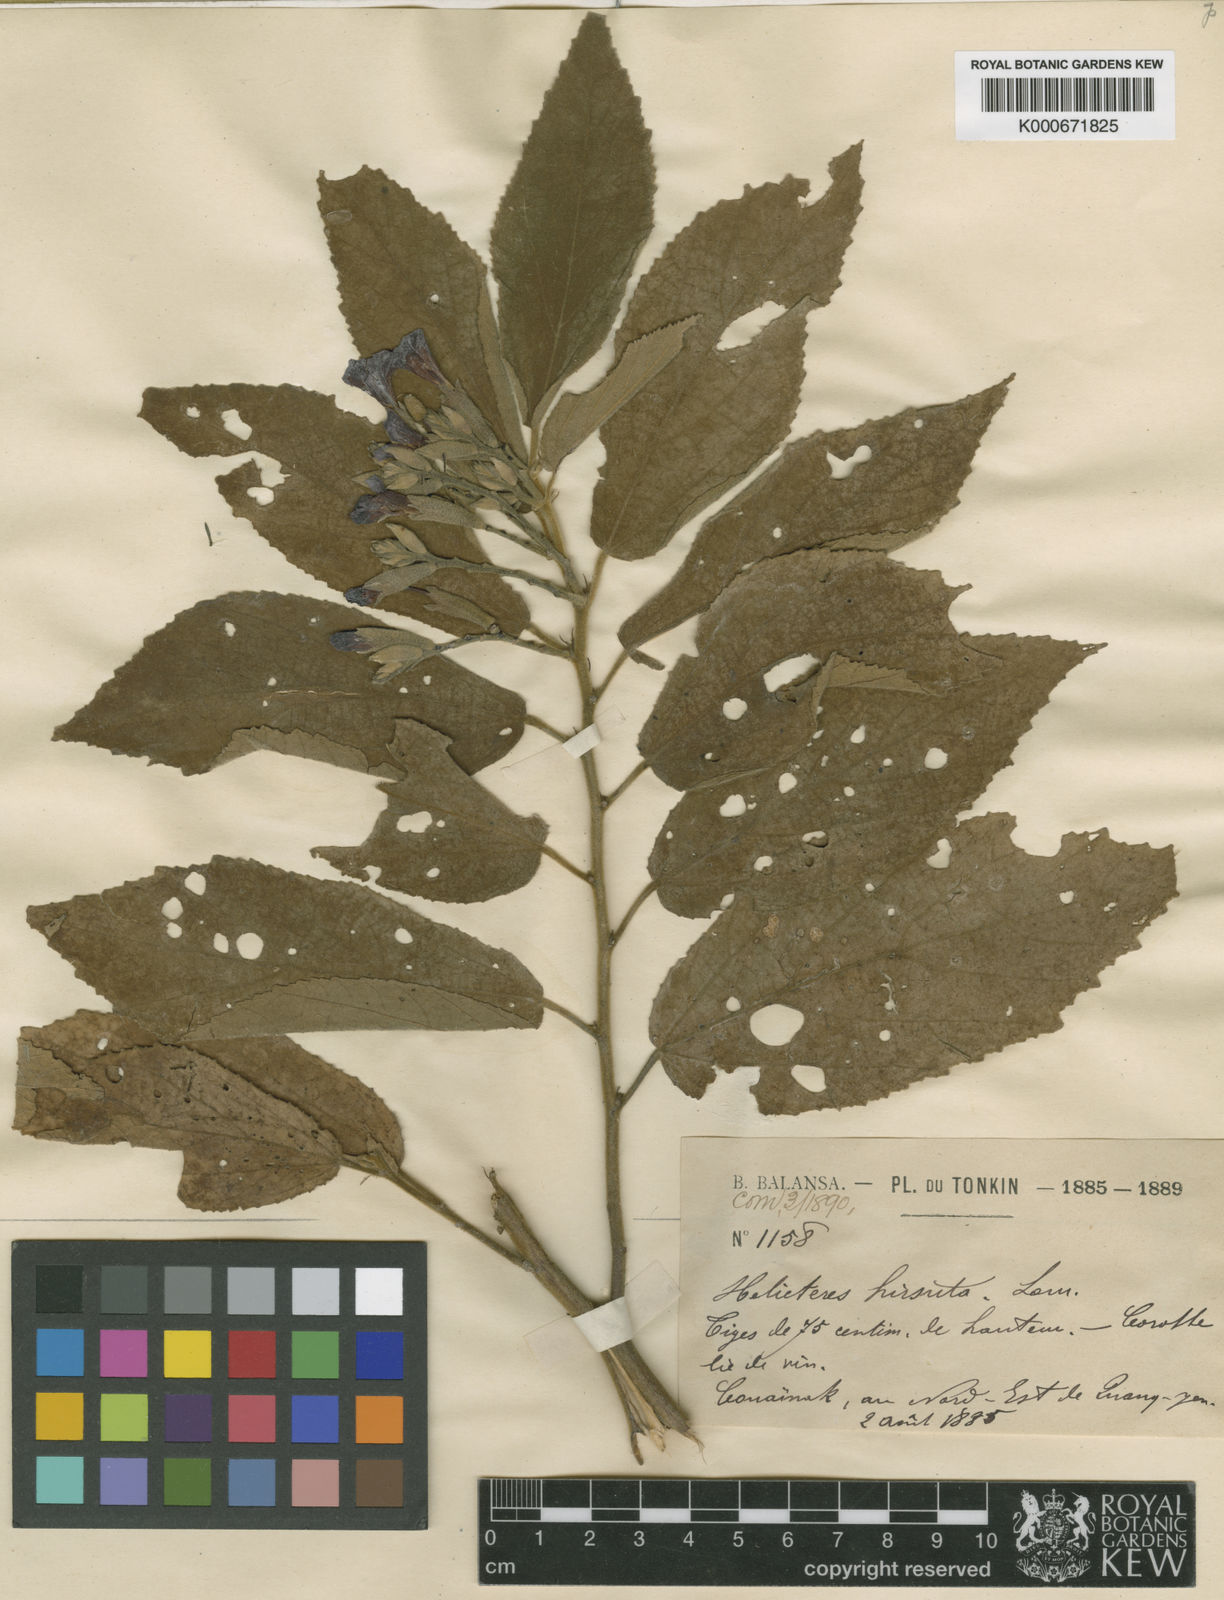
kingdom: Plantae
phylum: Tracheophyta
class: Magnoliopsida
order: Malvales
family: Malvaceae
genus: Helicteres
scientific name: Helicteres hirsuta
